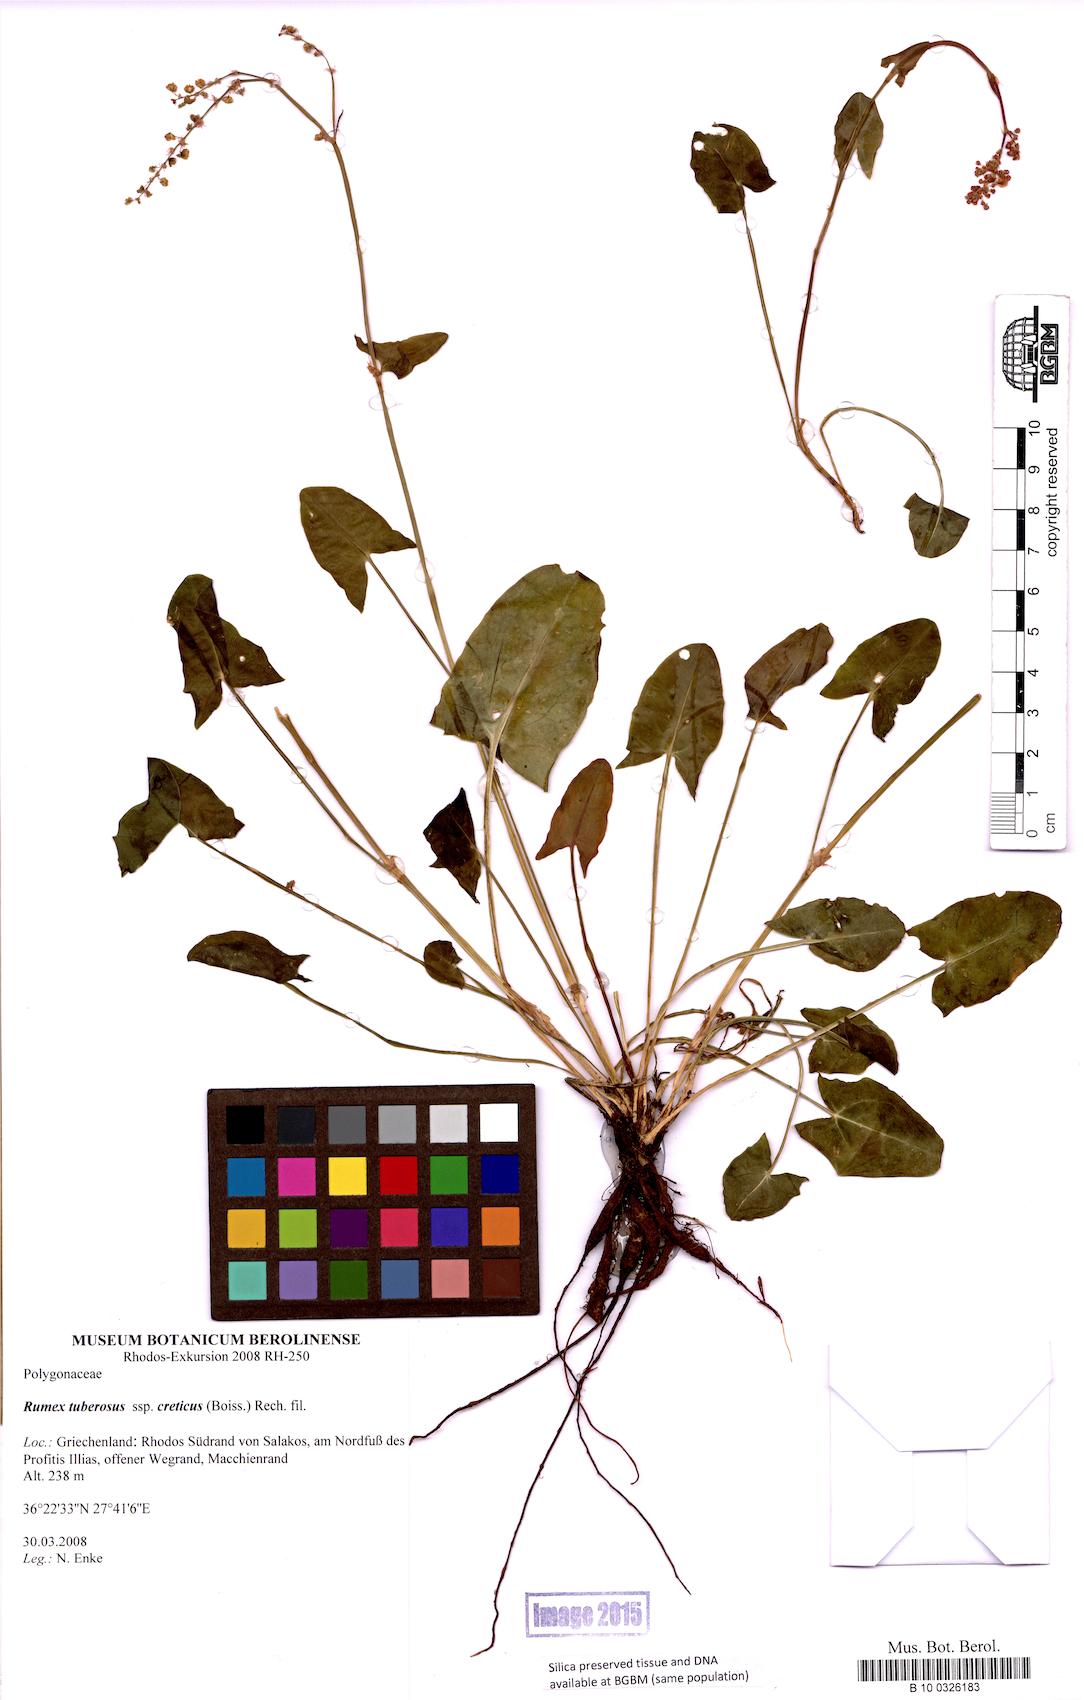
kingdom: Plantae
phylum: Tracheophyta
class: Magnoliopsida
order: Caryophyllales
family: Polygonaceae
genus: Rumex
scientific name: Rumex tuberosus
